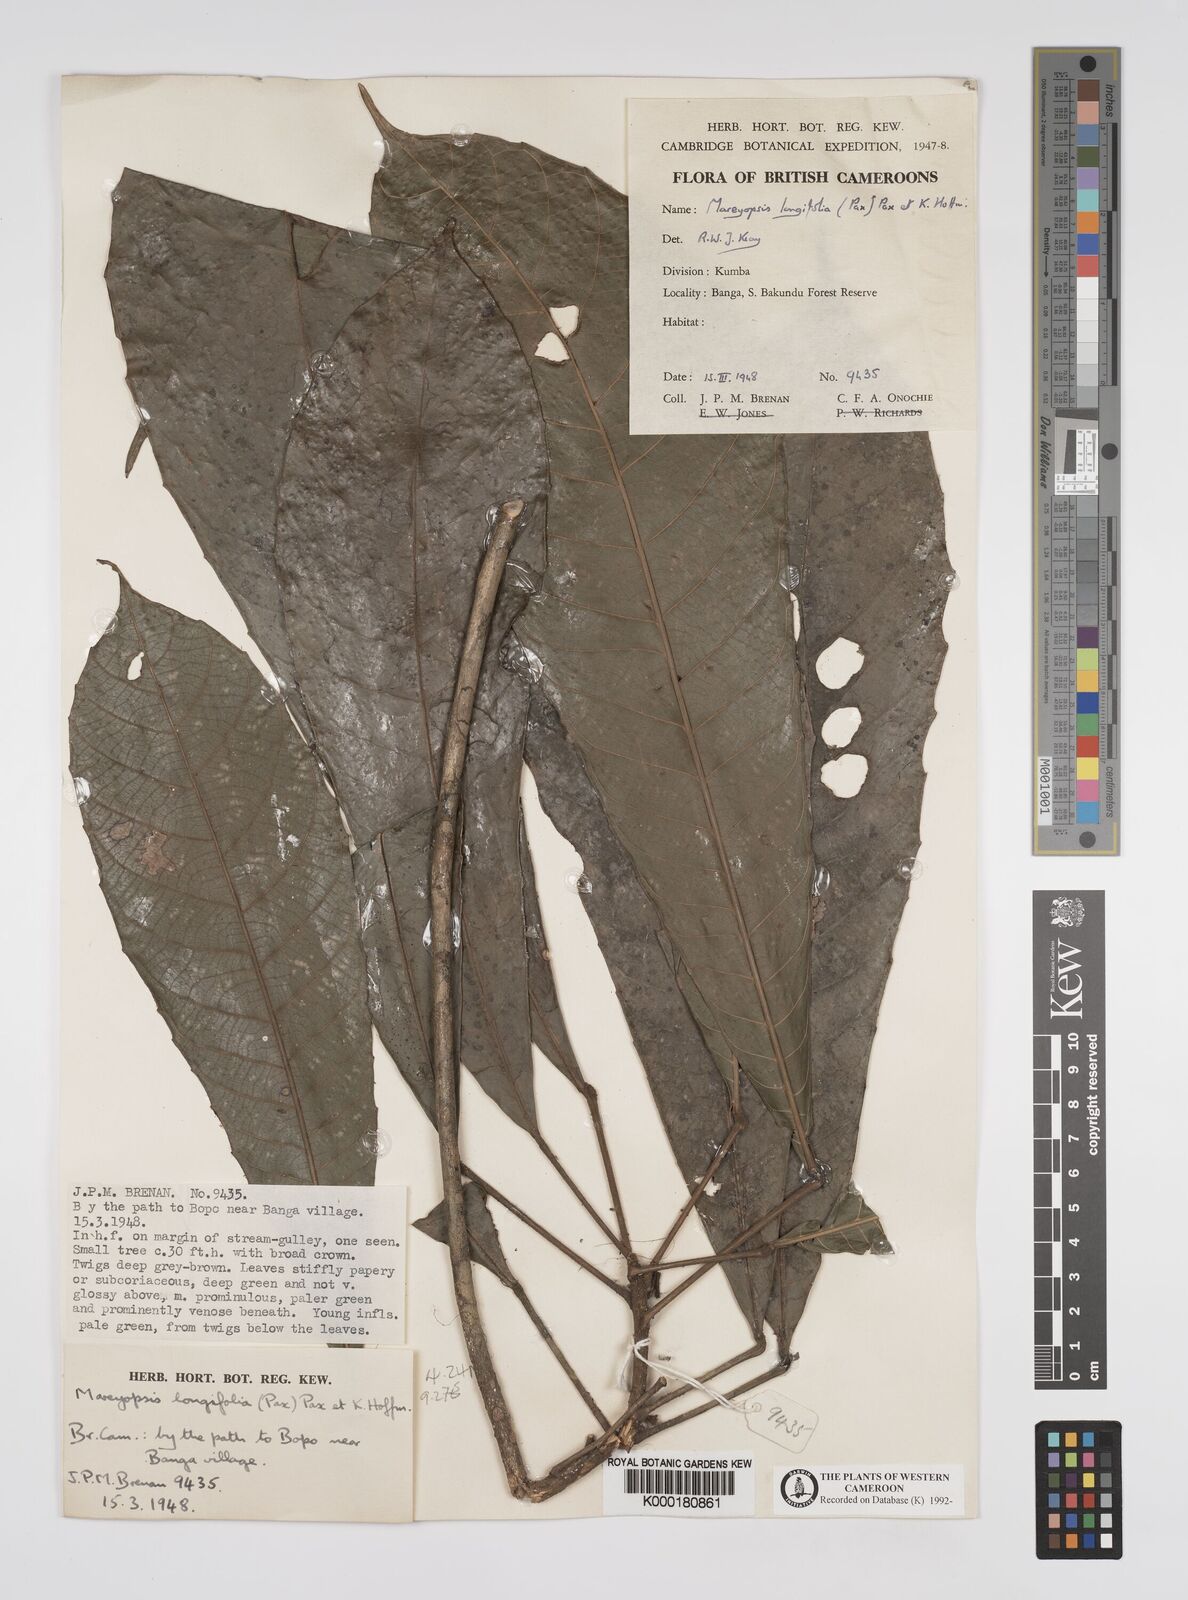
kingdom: Plantae
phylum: Tracheophyta
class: Magnoliopsida
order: Malpighiales
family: Euphorbiaceae
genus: Mareyopsis
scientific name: Mareyopsis longifolia
